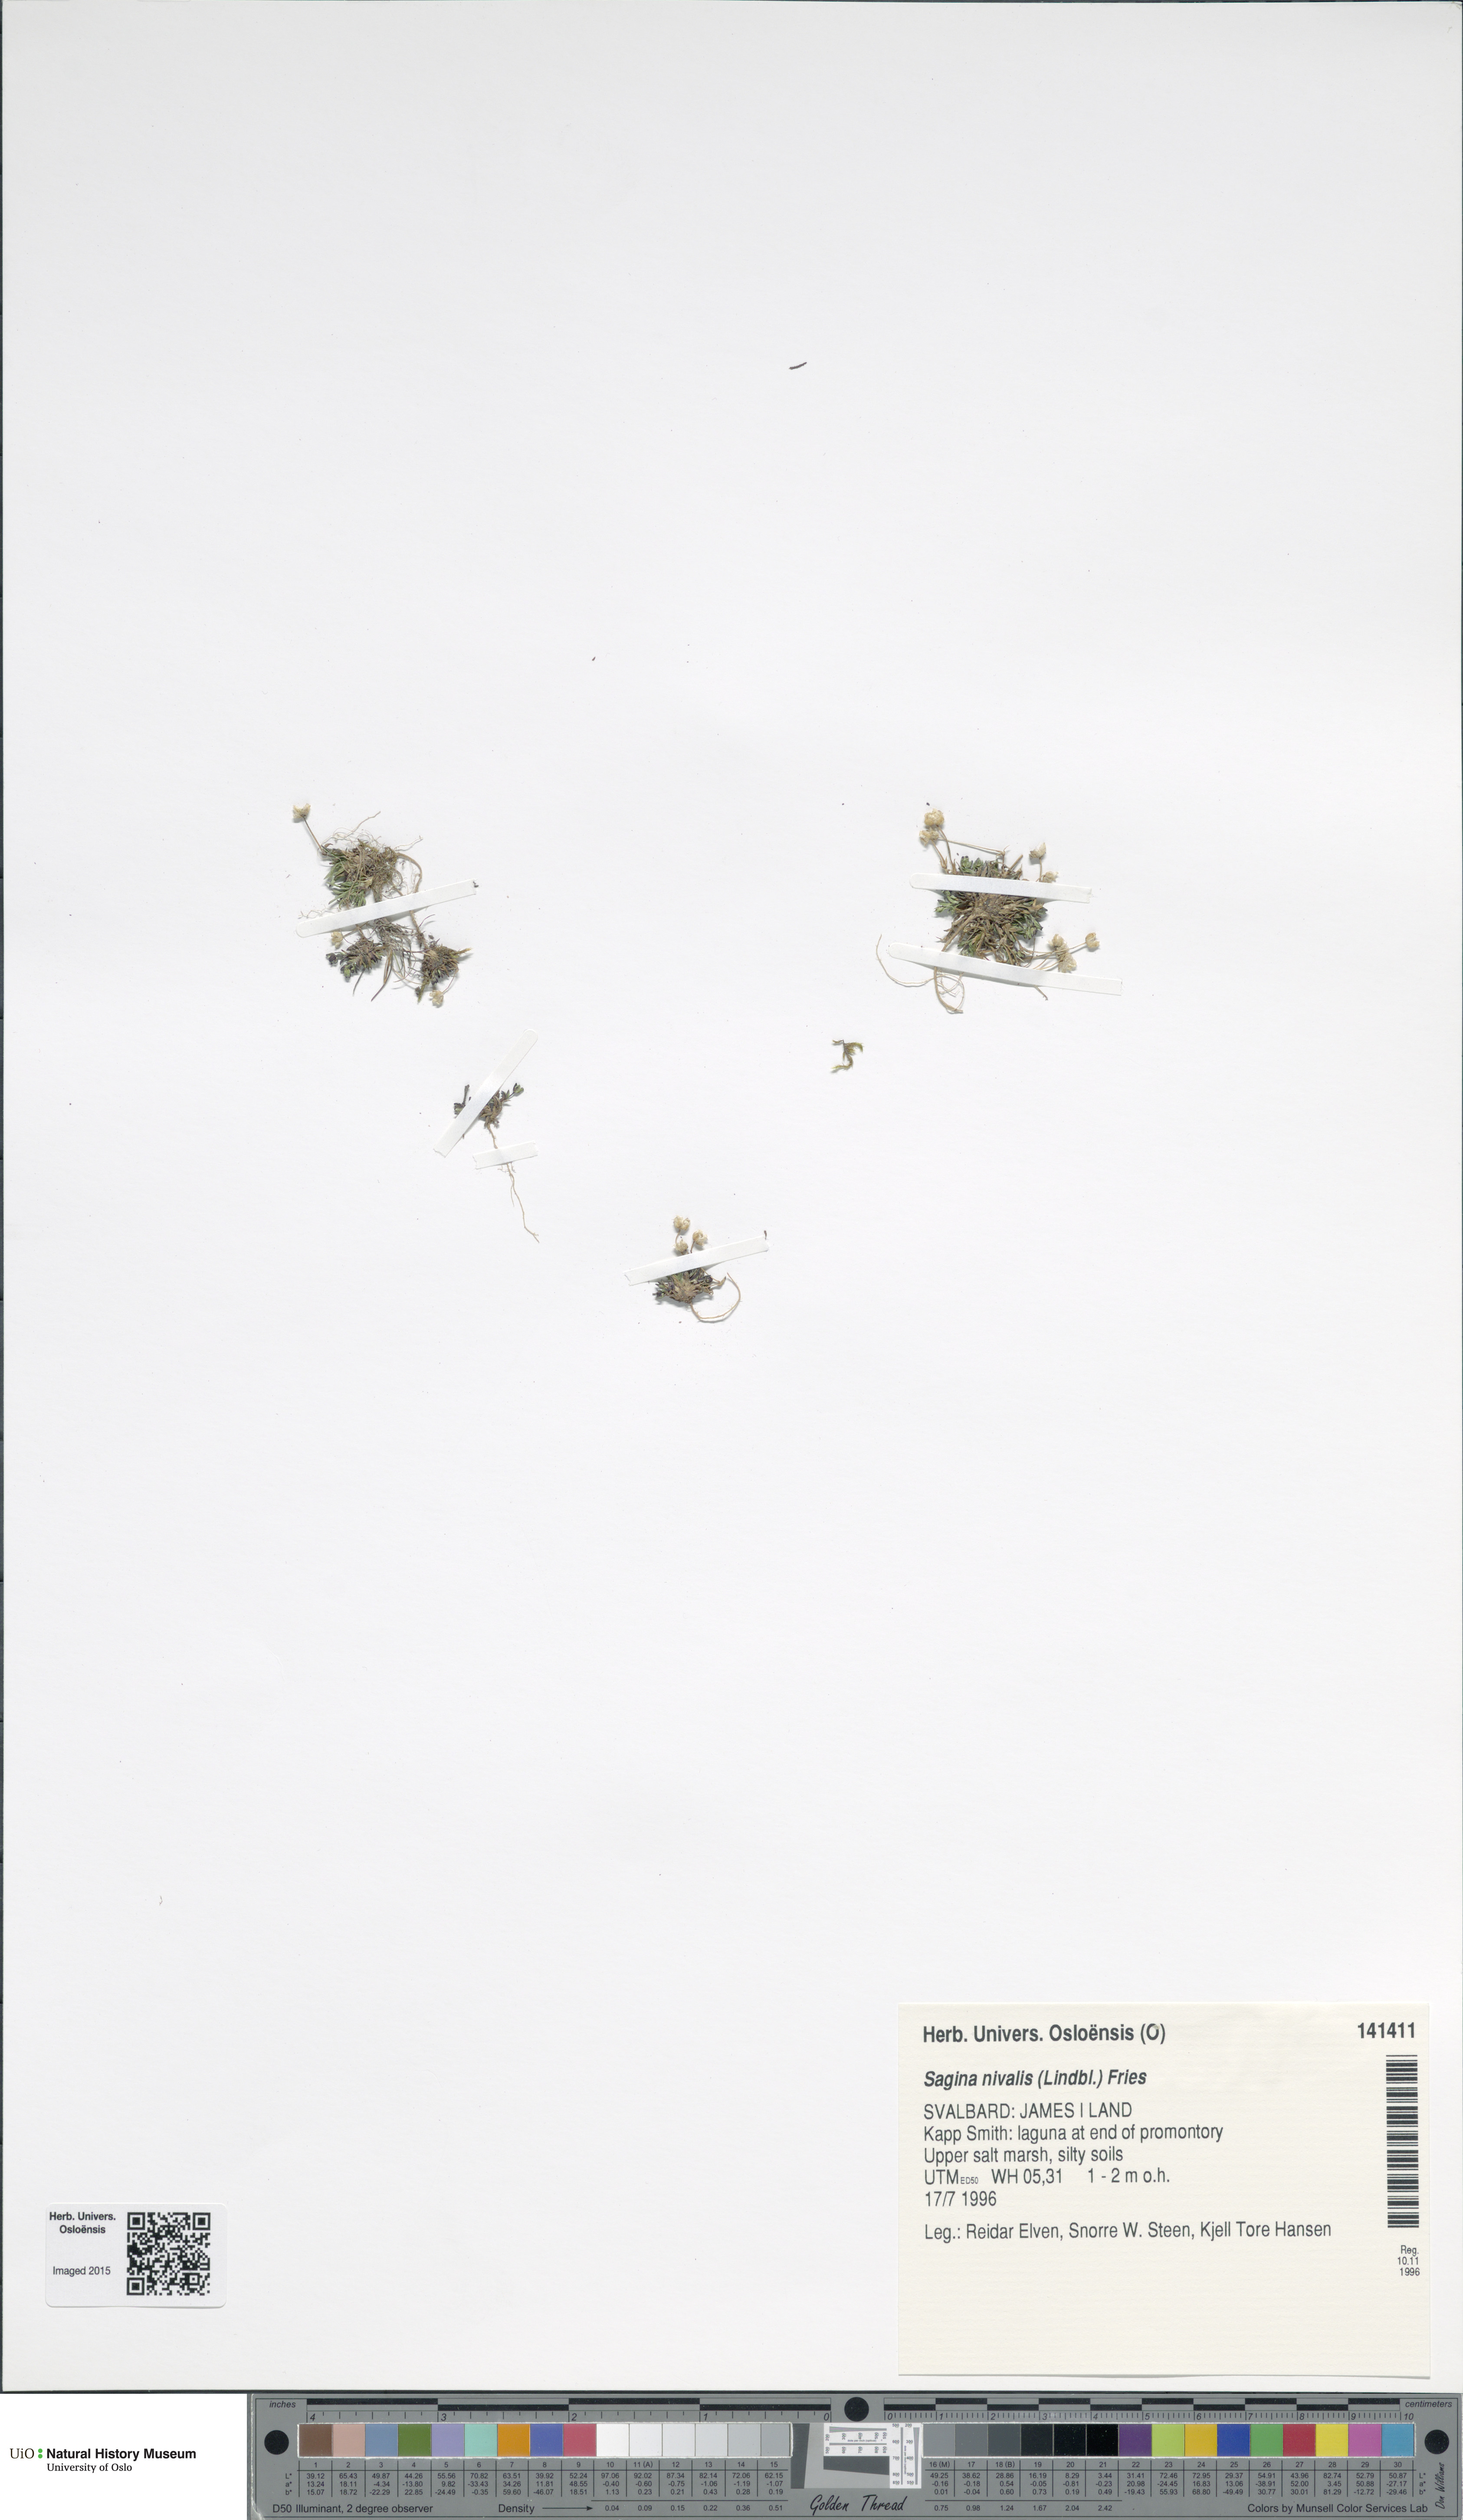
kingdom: Plantae
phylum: Tracheophyta
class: Magnoliopsida
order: Caryophyllales
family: Caryophyllaceae
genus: Sagina
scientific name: Sagina nivalis
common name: Snow pearlwort
